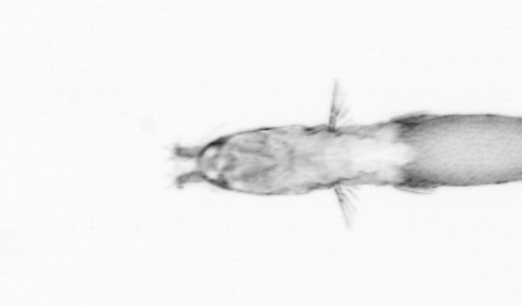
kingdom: Animalia
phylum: Arthropoda
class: Copepoda
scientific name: Copepoda
